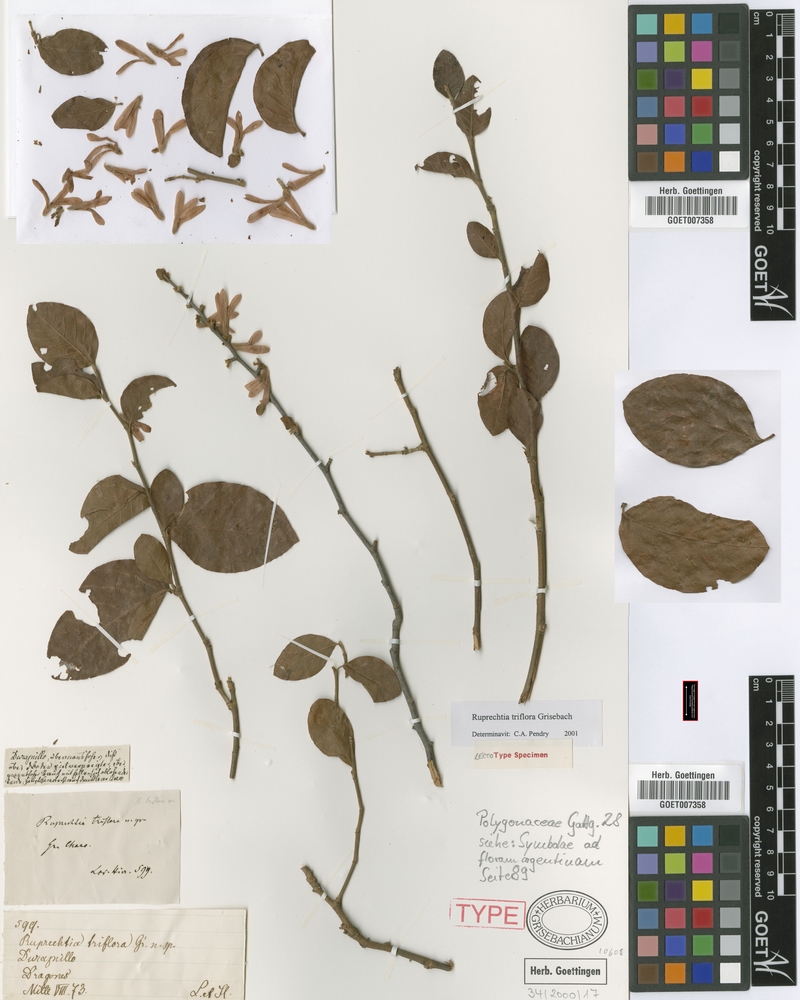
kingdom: Plantae
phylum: Tracheophyta
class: Magnoliopsida
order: Caryophyllales
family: Polygonaceae
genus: Salta
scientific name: Salta triflora
